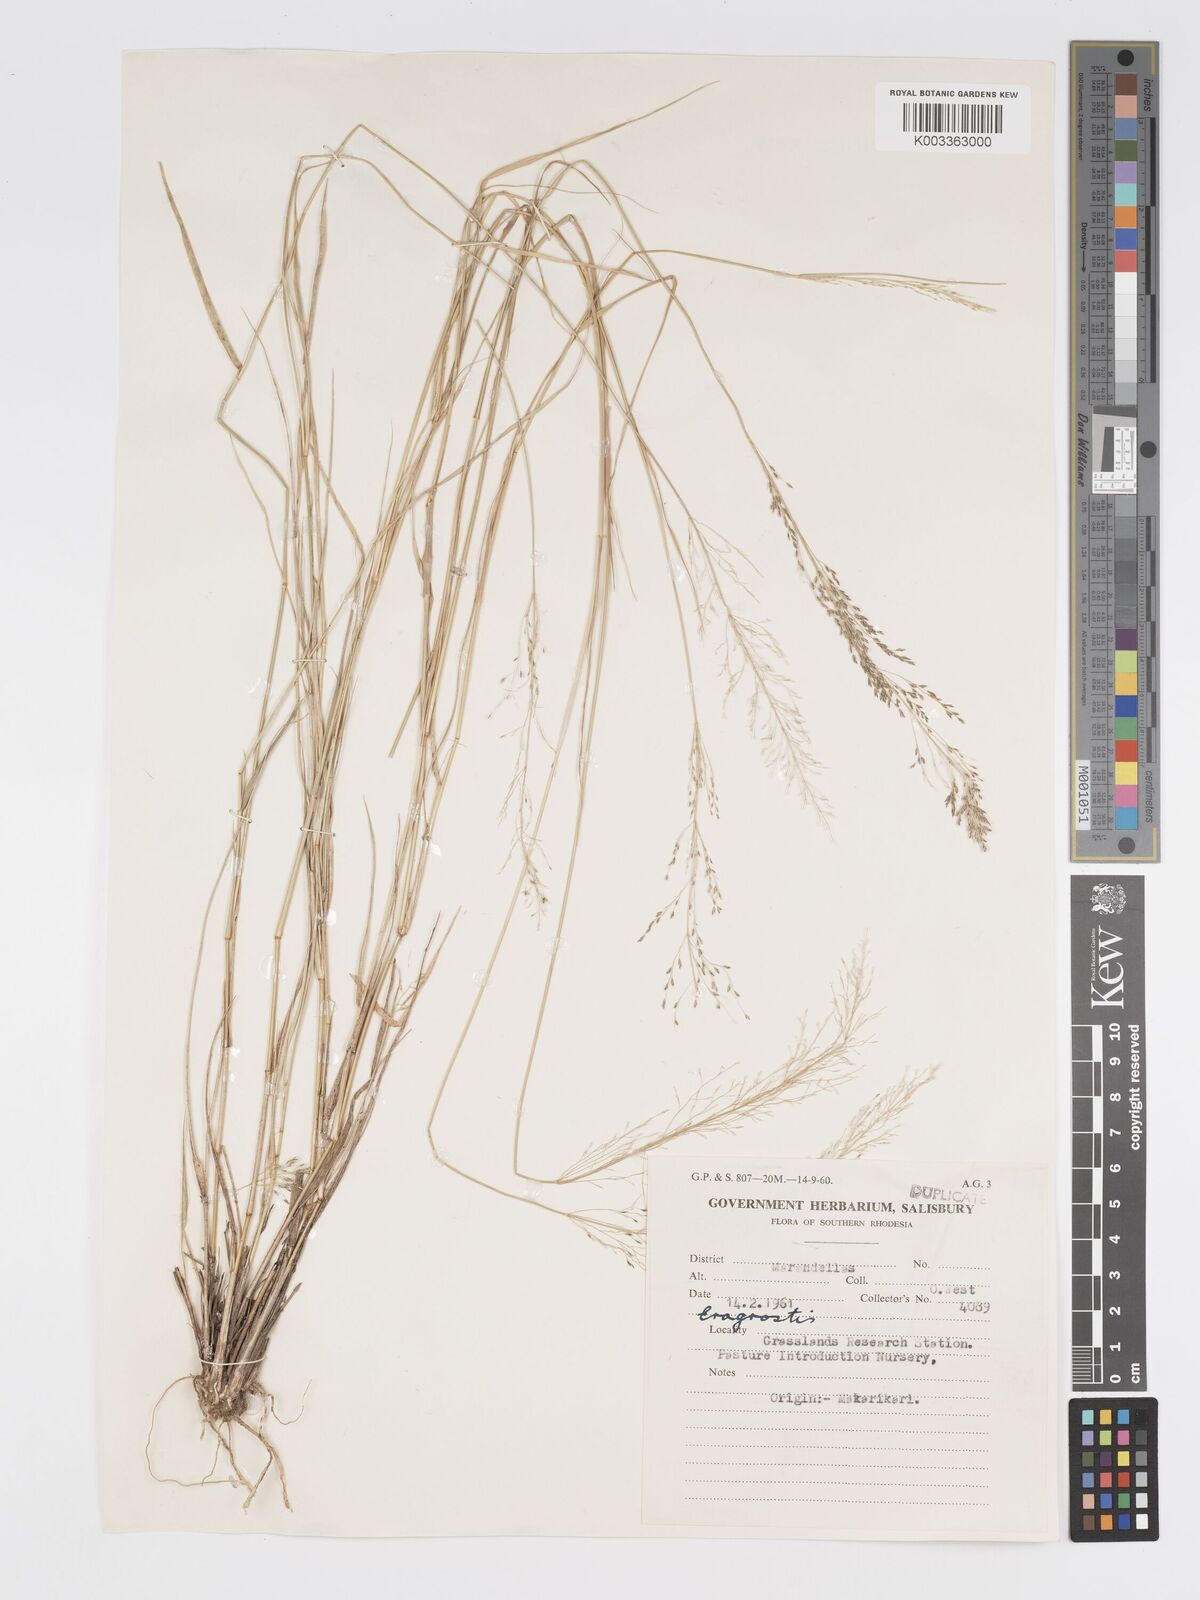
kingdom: Plantae
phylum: Tracheophyta
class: Liliopsida
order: Poales
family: Poaceae
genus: Eragrostis
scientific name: Eragrostis cylindriflora
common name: Cylinderflower lovegrass
